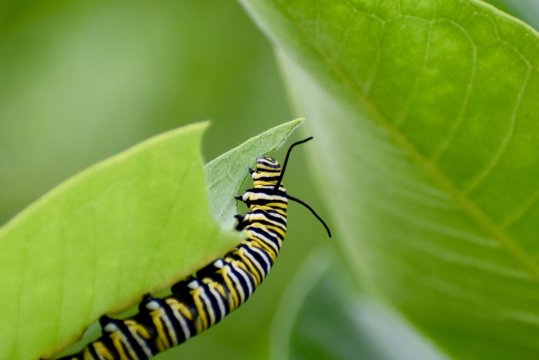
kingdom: Animalia
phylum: Arthropoda
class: Insecta
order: Lepidoptera
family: Nymphalidae
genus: Danaus
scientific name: Danaus plexippus
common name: Monarch
